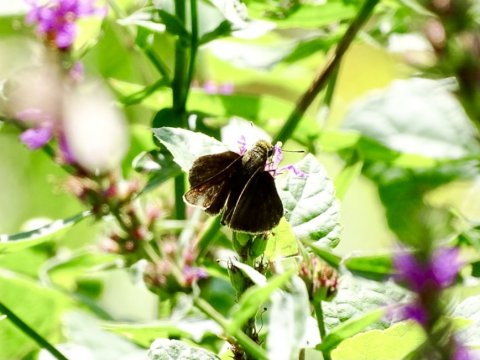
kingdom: Animalia
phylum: Arthropoda
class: Insecta
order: Lepidoptera
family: Hesperiidae
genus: Euphyes
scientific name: Euphyes vestris
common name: Dun Skipper
